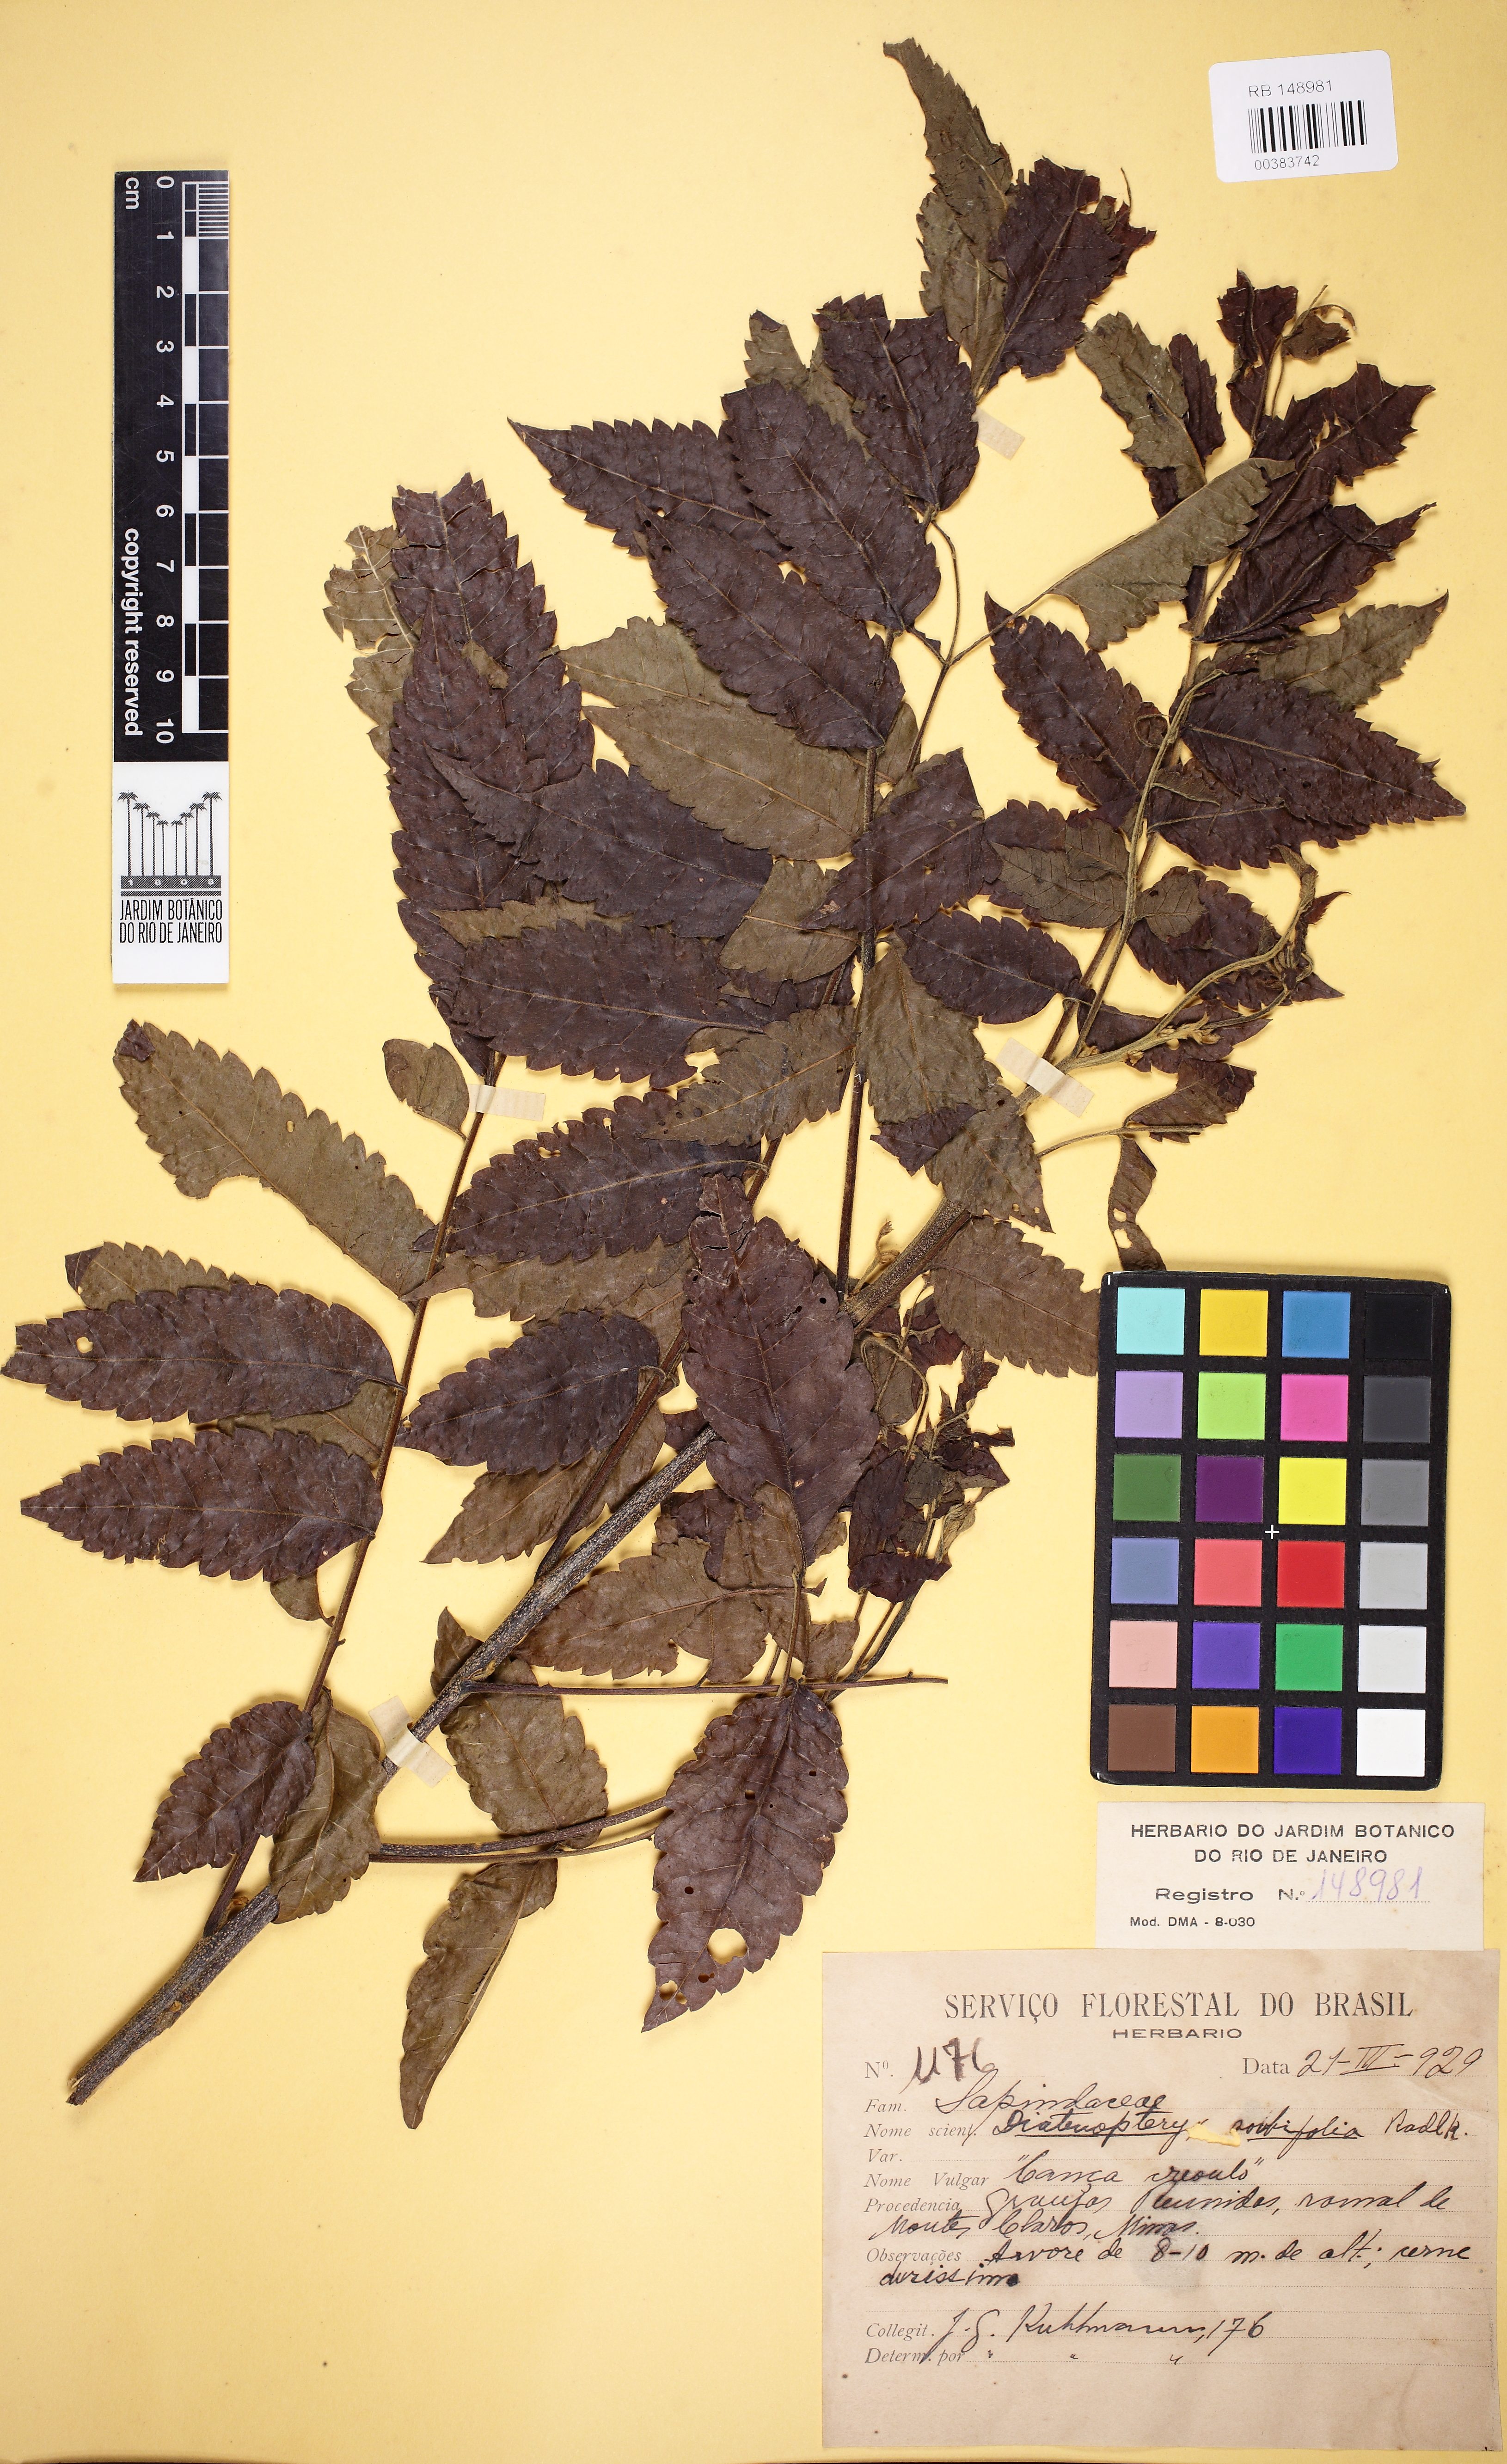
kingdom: Plantae
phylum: Tracheophyta
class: Magnoliopsida
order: Sapindales
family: Sapindaceae
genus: Diatenopteryx
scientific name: Diatenopteryx sorbifolia
